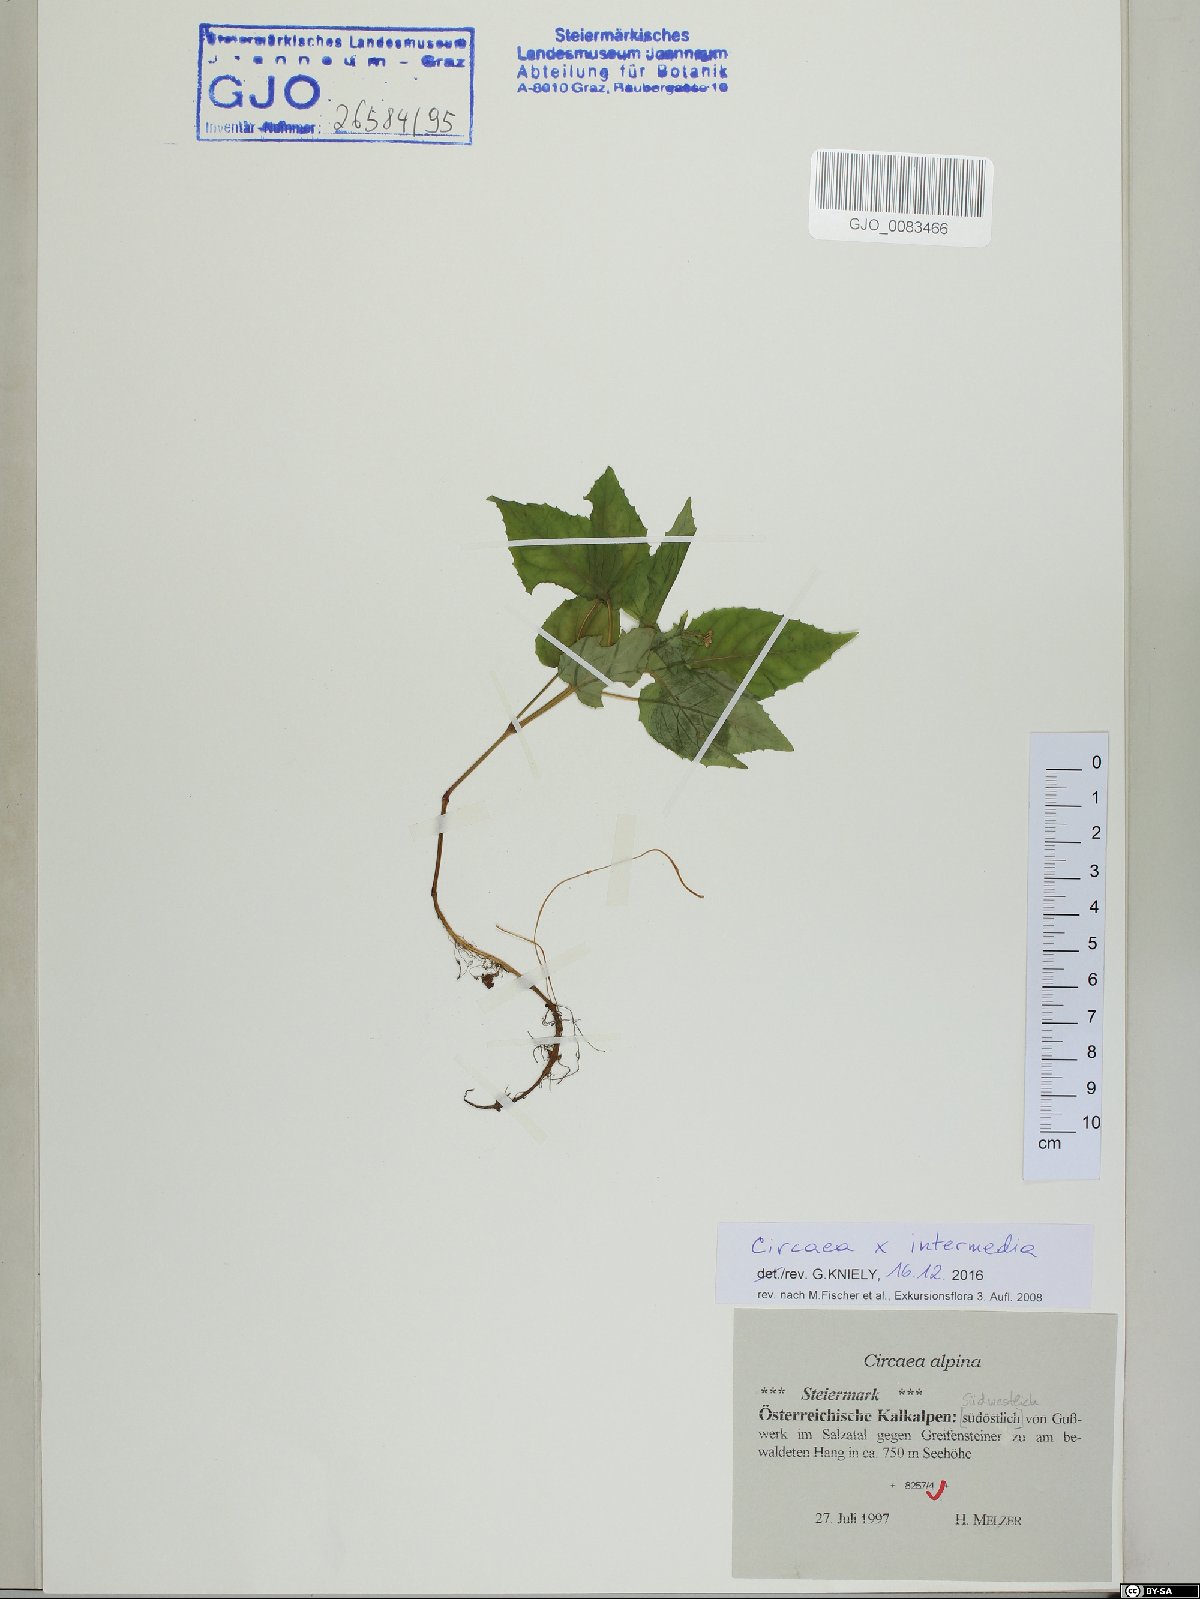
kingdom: Plantae
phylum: Tracheophyta
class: Magnoliopsida
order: Myrtales
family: Onagraceae
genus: Circaea
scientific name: Circaea intermedia
